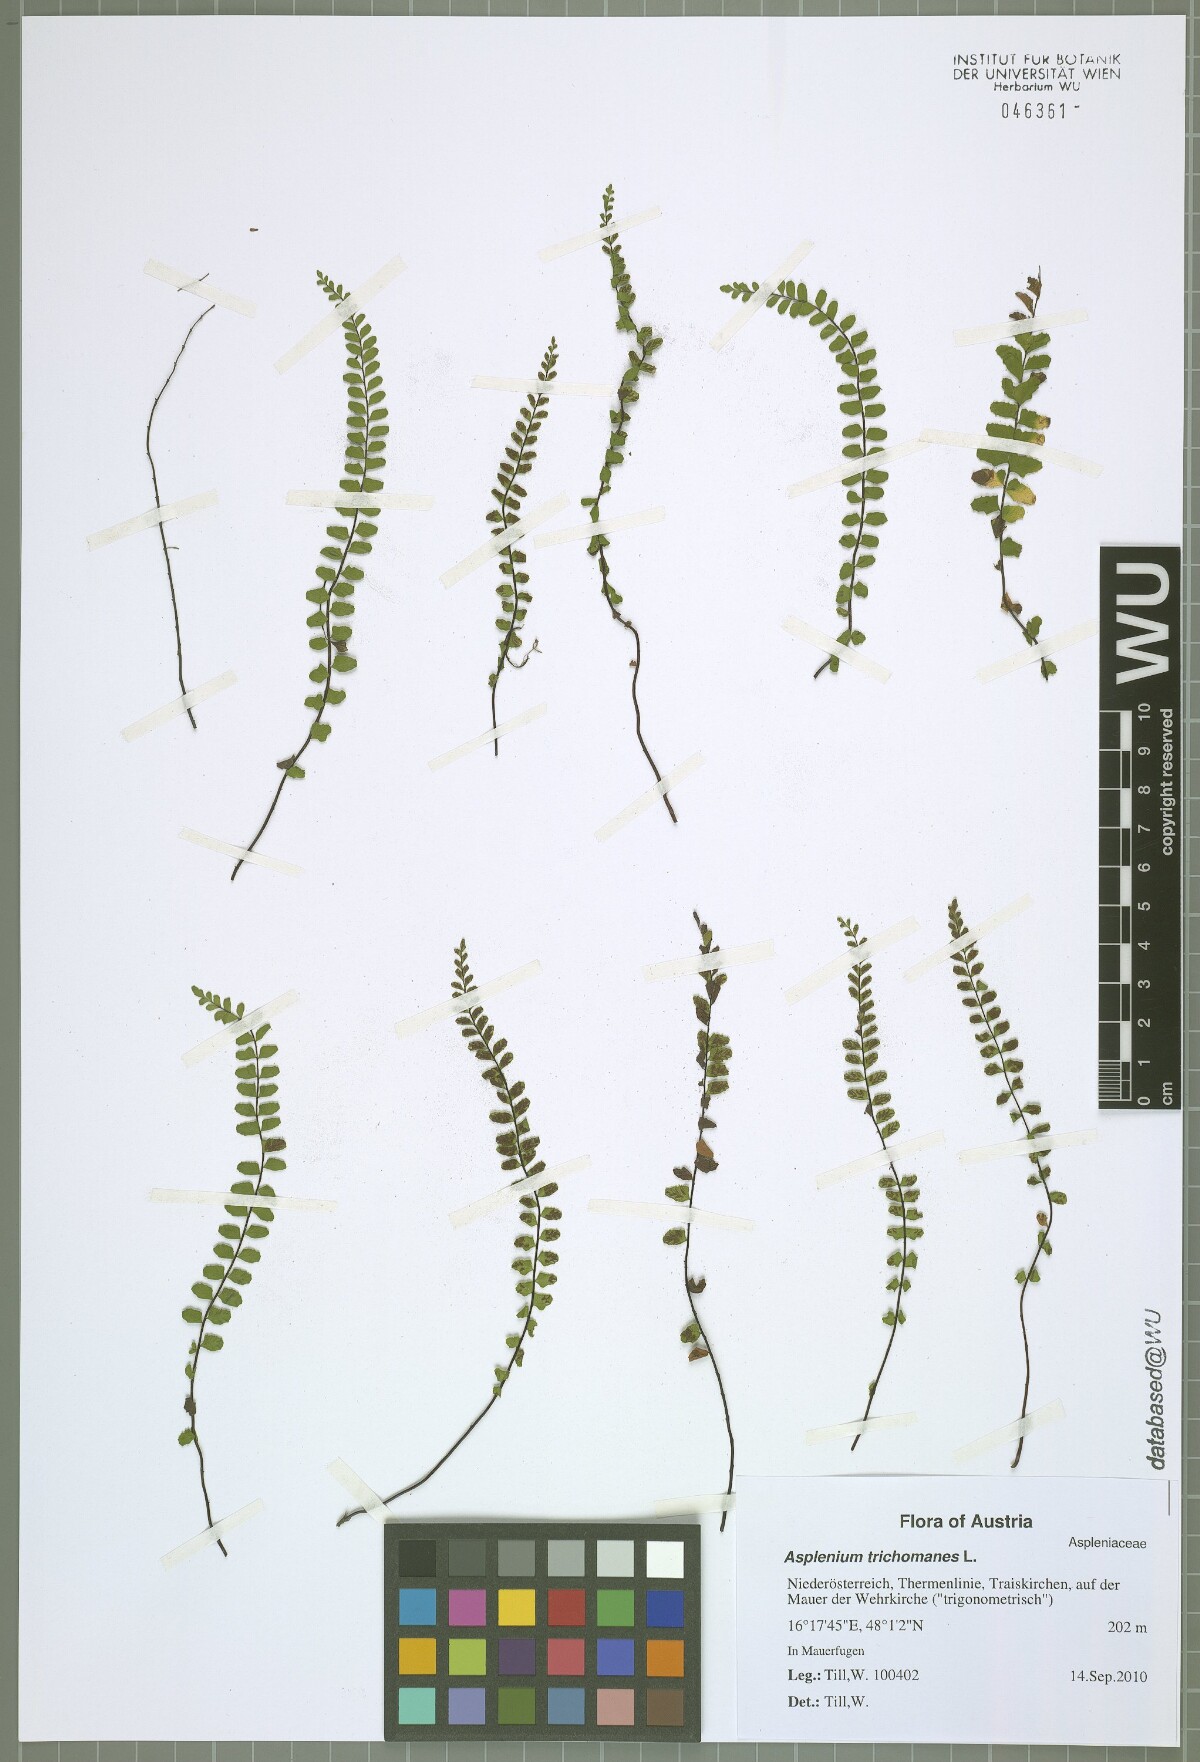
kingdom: Plantae
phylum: Tracheophyta
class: Polypodiopsida
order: Polypodiales
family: Aspleniaceae
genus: Asplenium
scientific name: Asplenium trichomanes
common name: Maidenhair spleenwort
